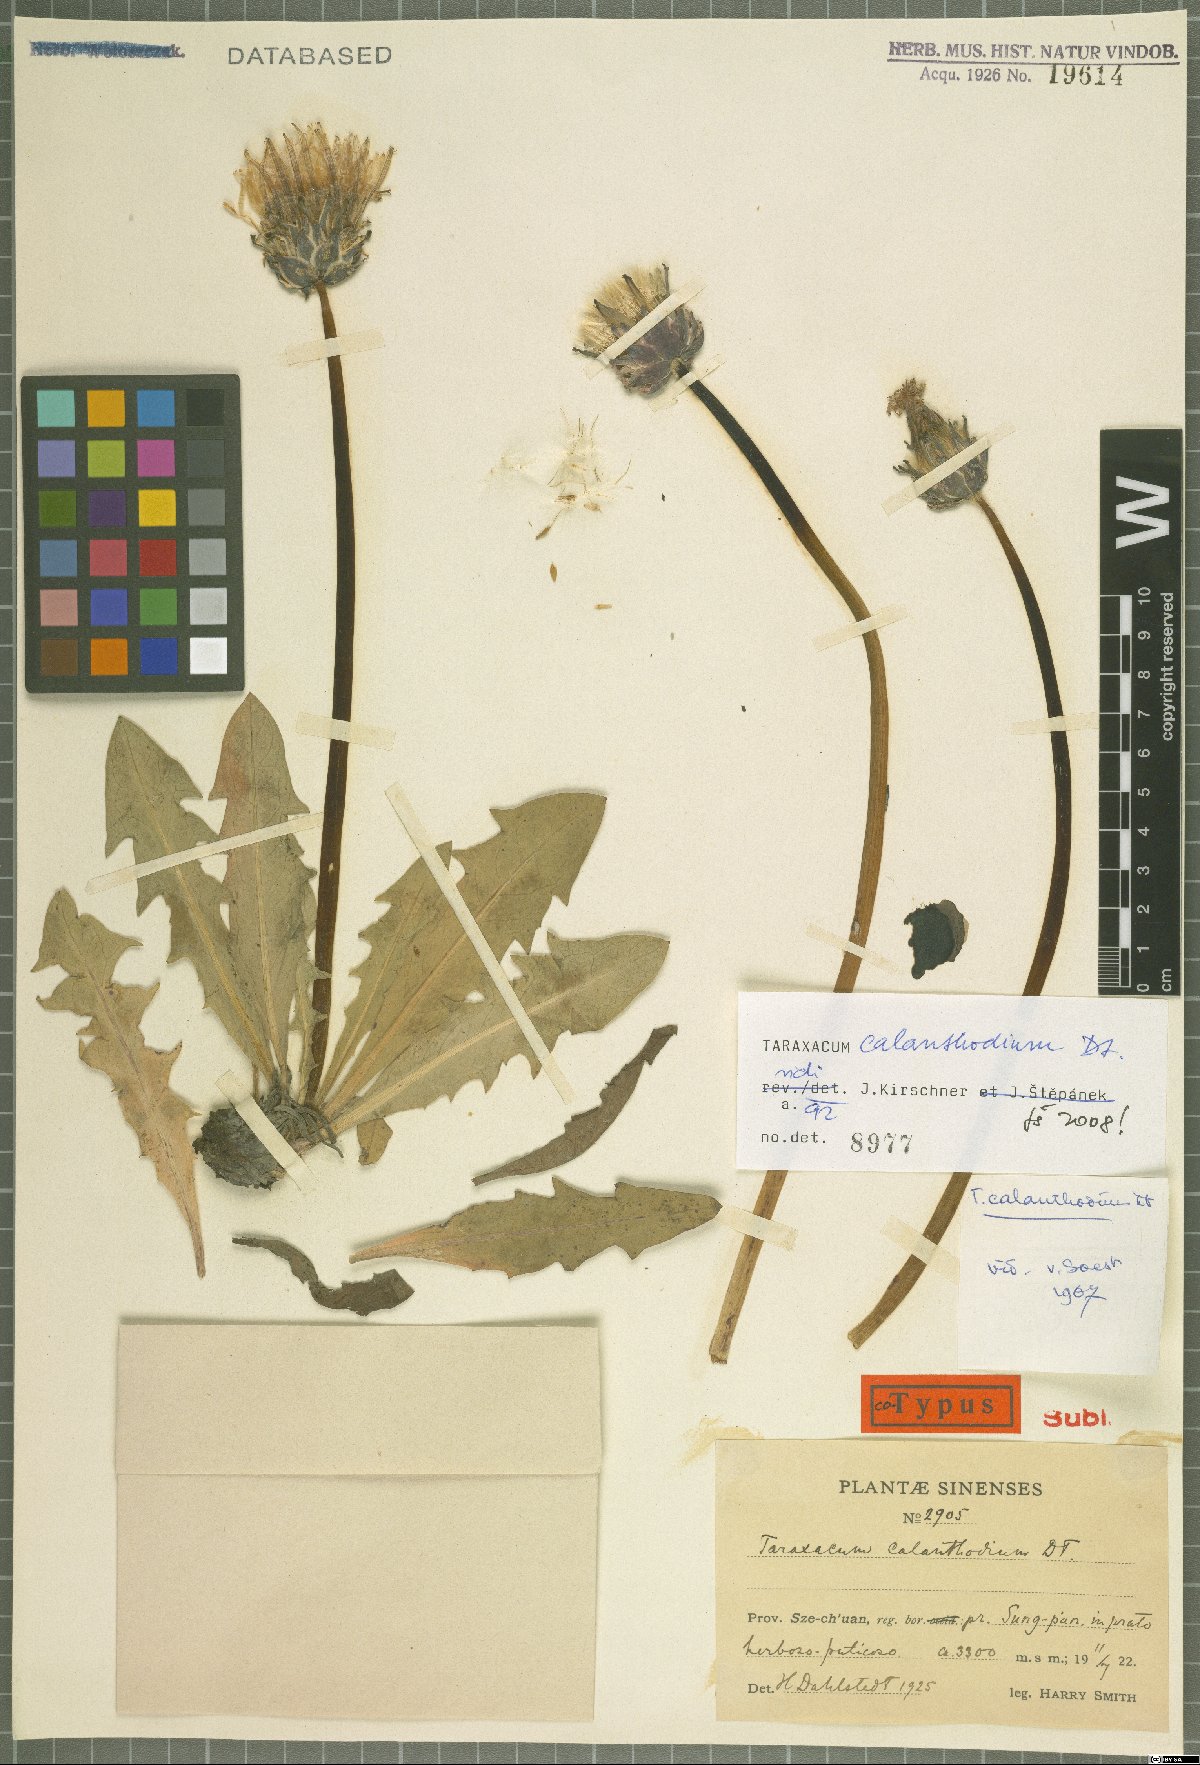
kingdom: Plantae
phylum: Tracheophyta
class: Magnoliopsida
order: Asterales
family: Asteraceae
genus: Taraxacum
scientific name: Taraxacum calanthodium
